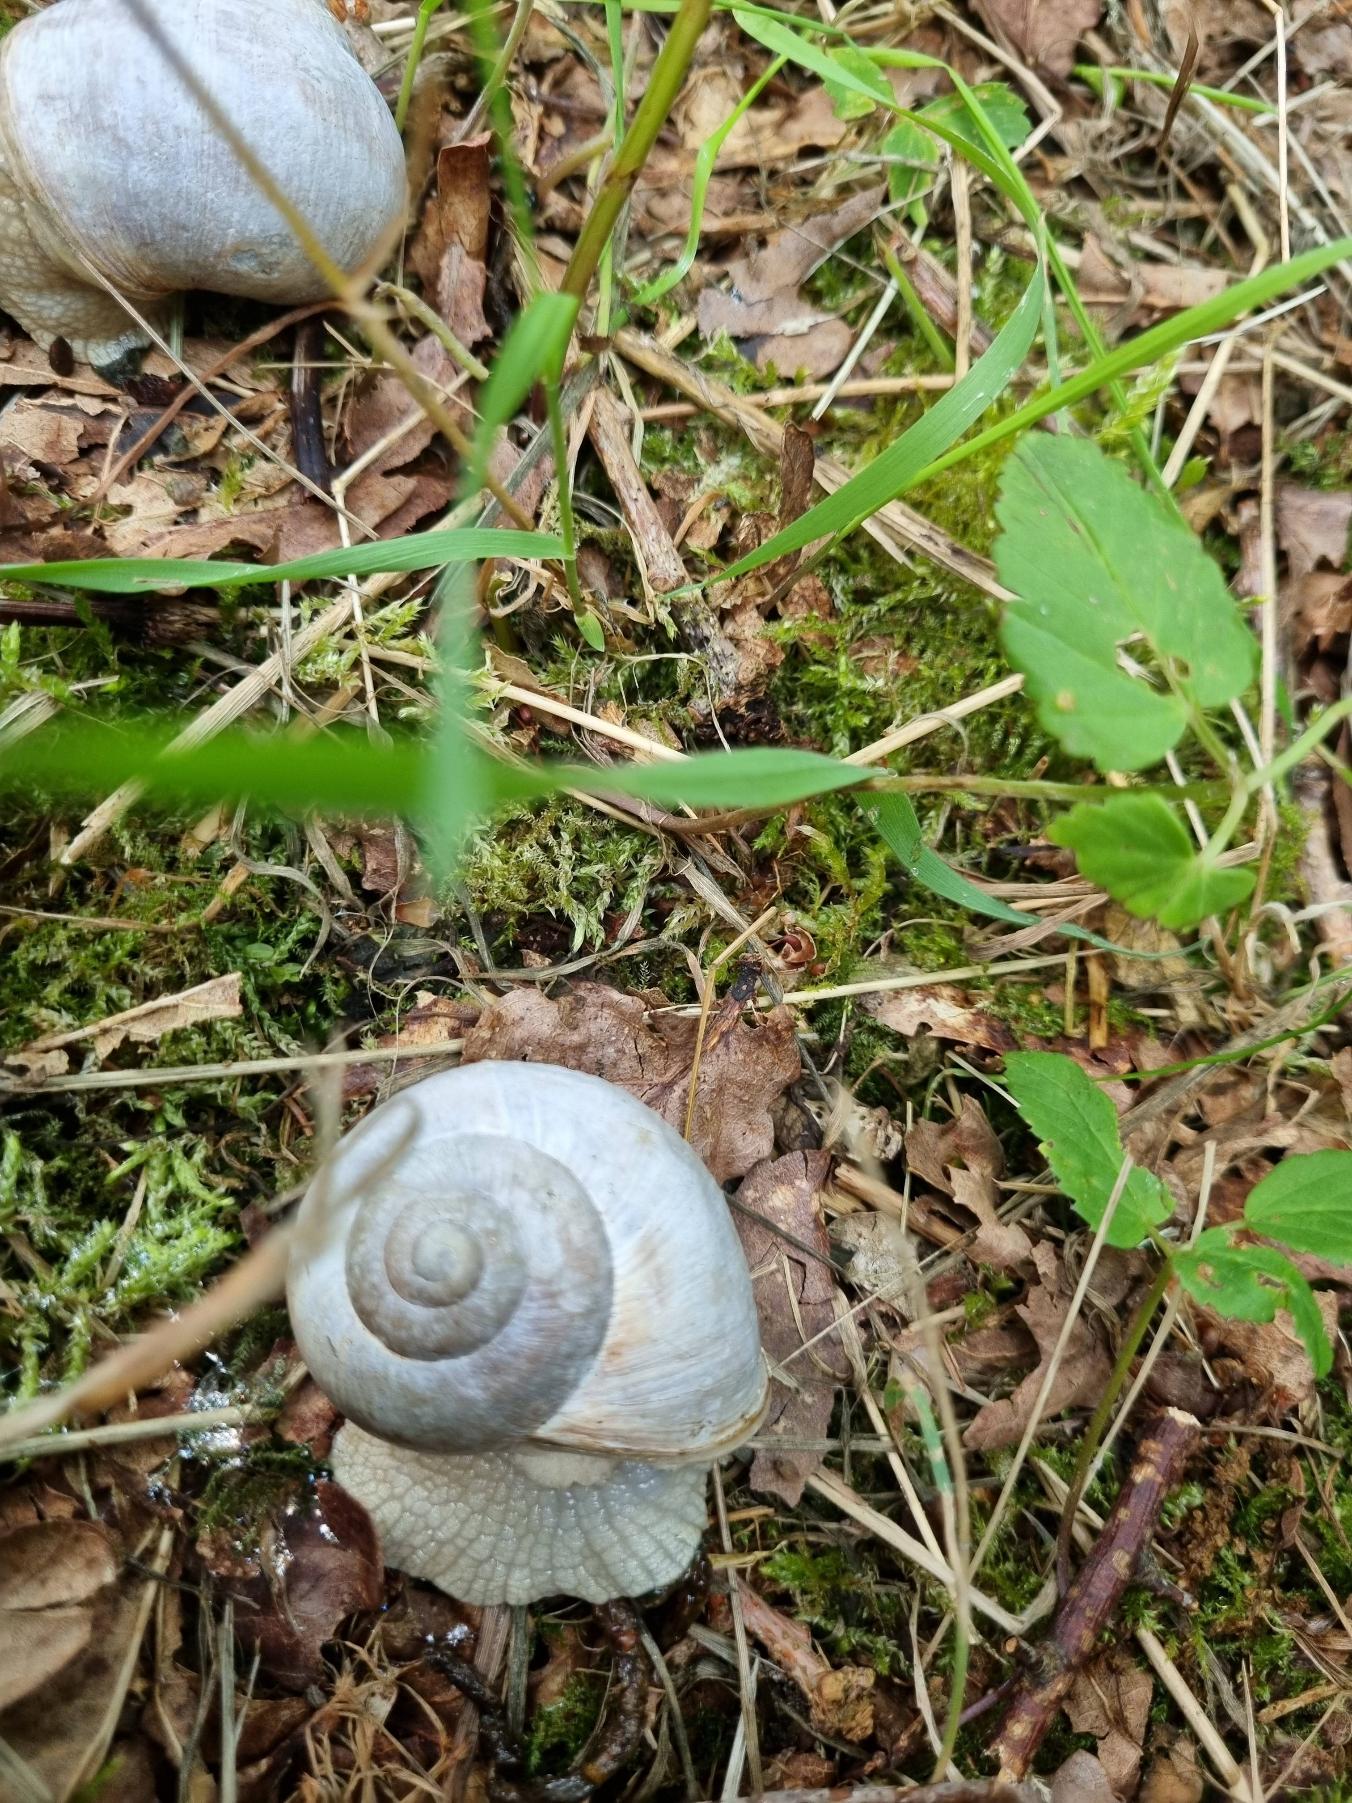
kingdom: Animalia
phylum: Mollusca
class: Gastropoda
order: Stylommatophora
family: Helicidae
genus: Helix
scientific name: Helix pomatia
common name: Vinbjergsnegl
